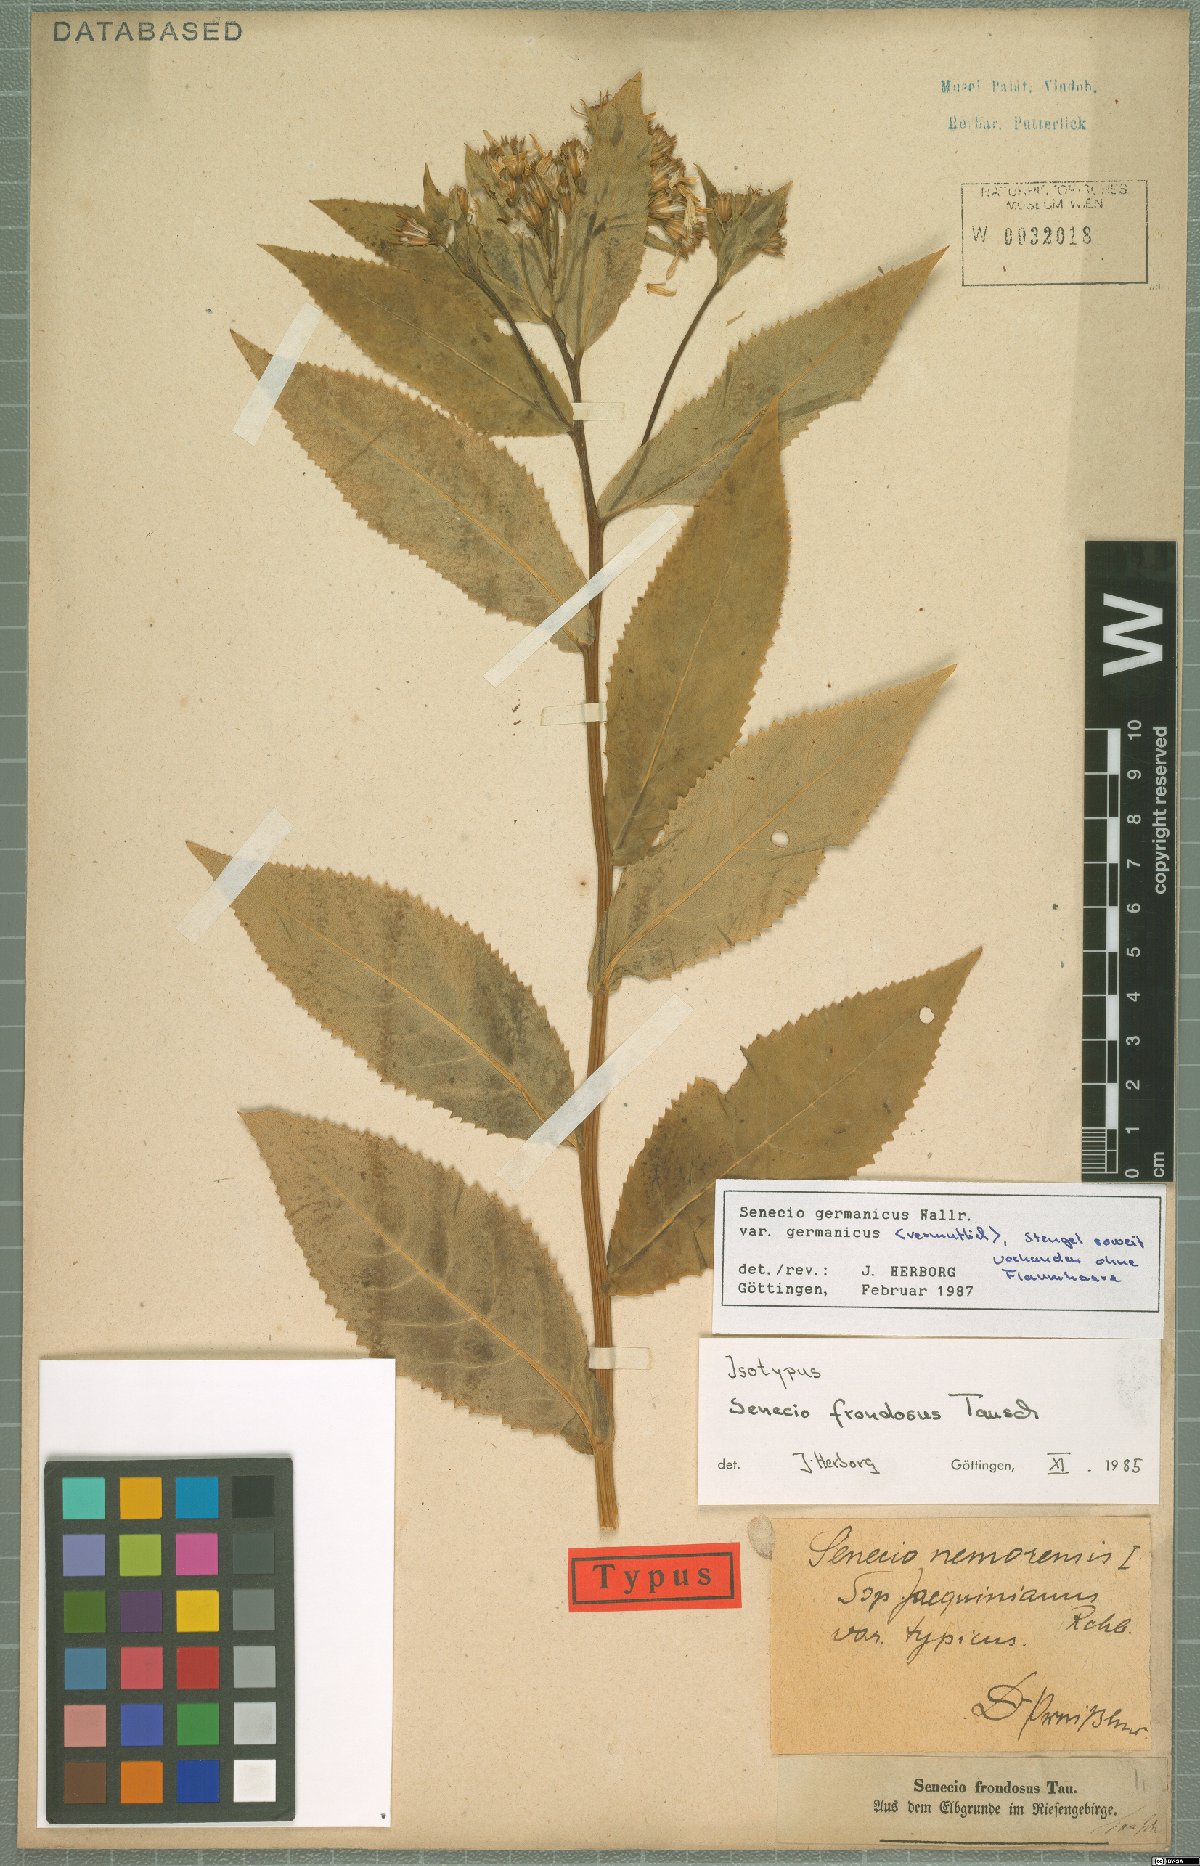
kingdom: Plantae
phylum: Tracheophyta
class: Magnoliopsida
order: Asterales
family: Asteraceae
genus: Senecio
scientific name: Senecio germanicus
